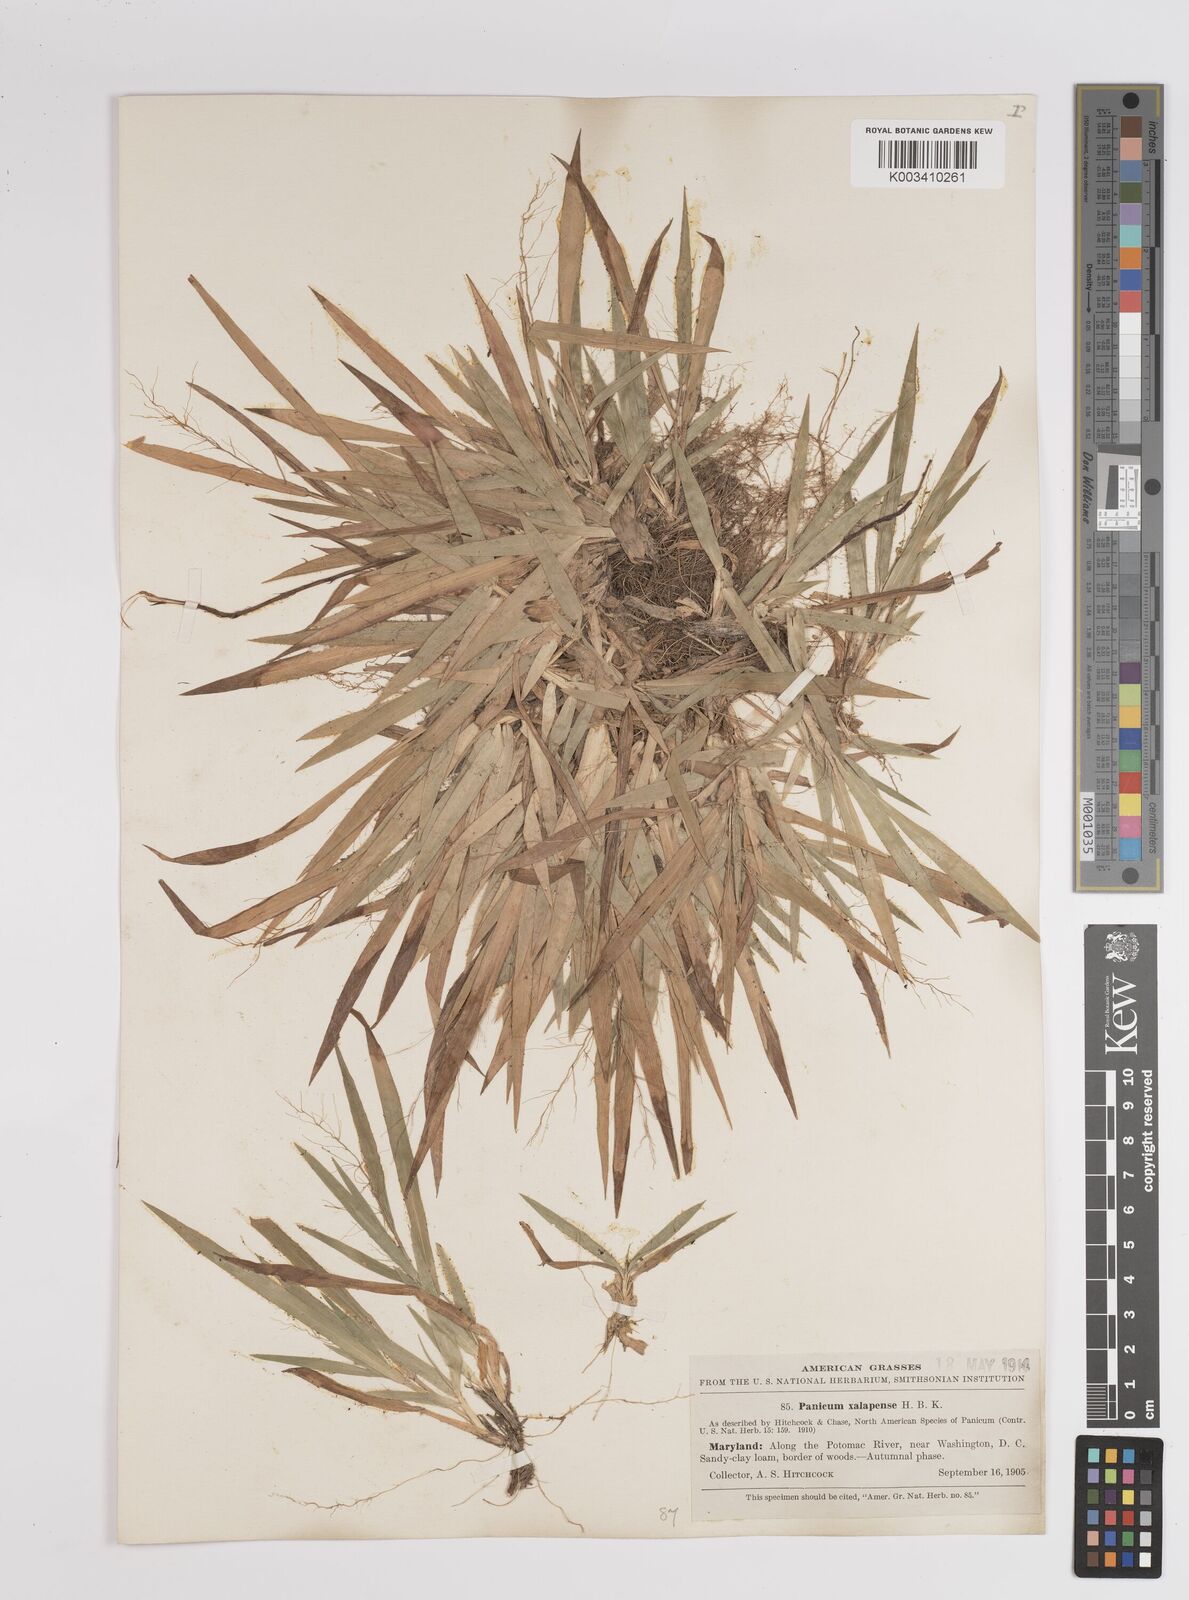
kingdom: Plantae
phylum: Tracheophyta
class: Liliopsida
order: Poales
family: Poaceae
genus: Dichanthelium
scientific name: Dichanthelium laxiflorum
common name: Soft-tuft panic grass
